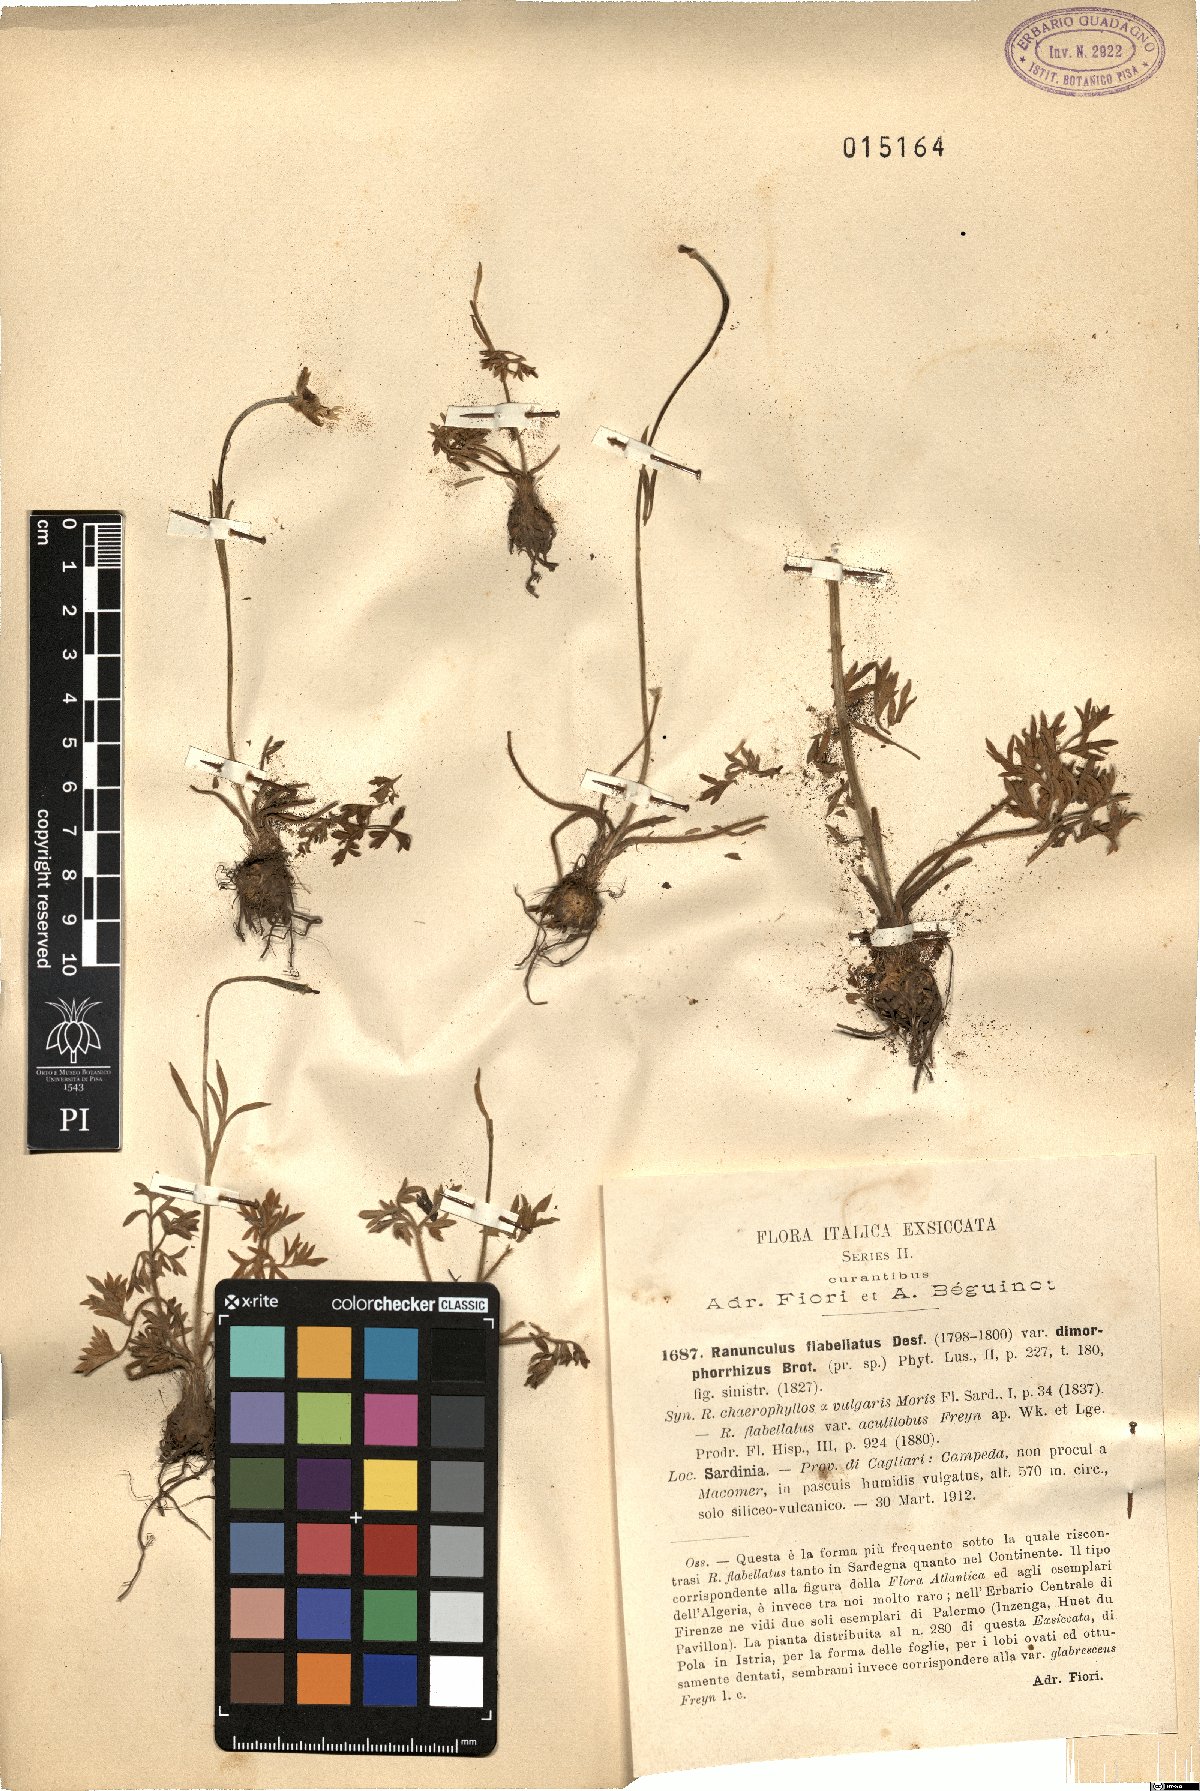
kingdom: Plantae
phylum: Tracheophyta
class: Magnoliopsida
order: Ranunculales
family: Ranunculaceae
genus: Ranunculus
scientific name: Ranunculus flabellatus
